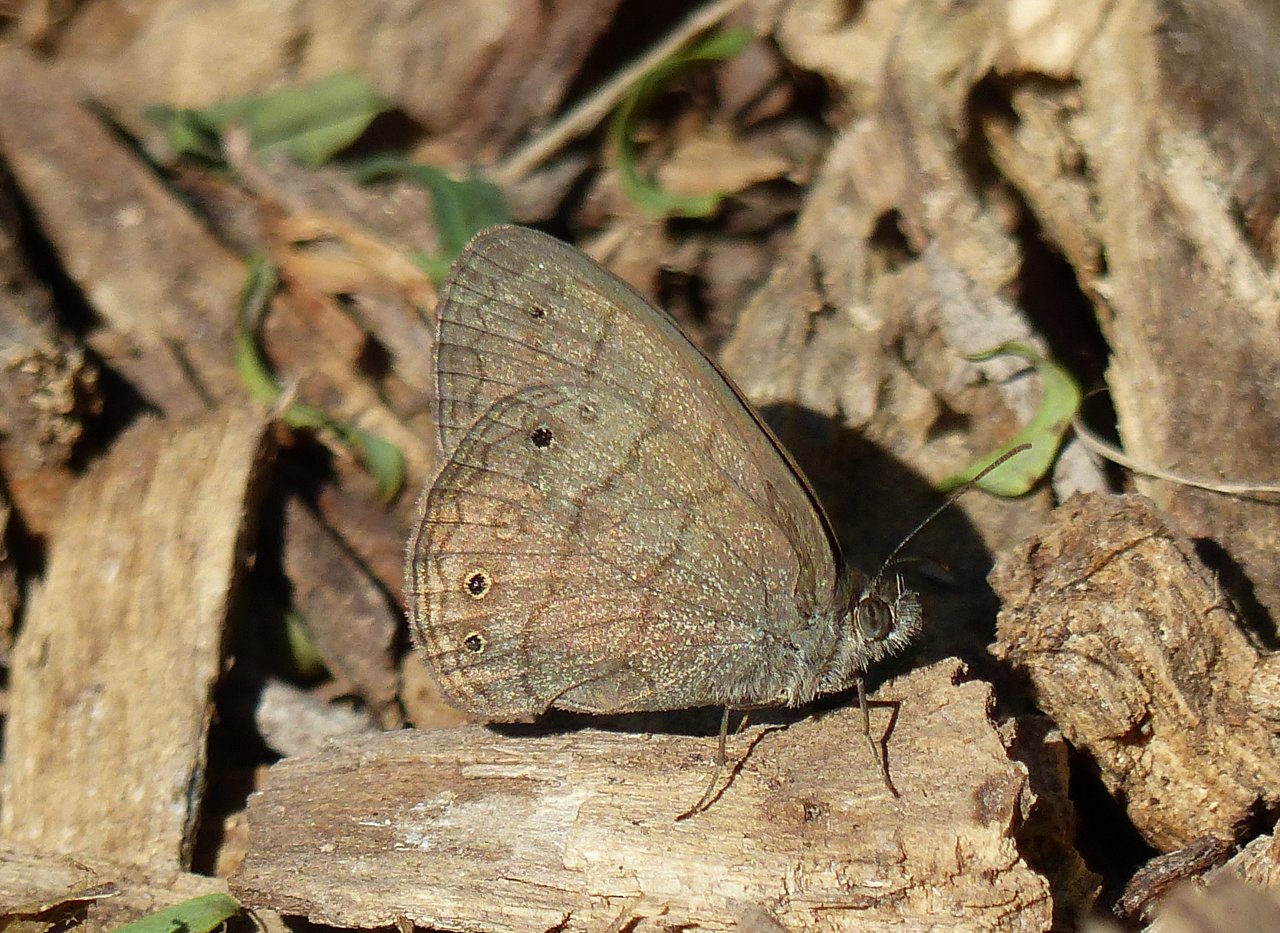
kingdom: Animalia
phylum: Arthropoda
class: Insecta
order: Lepidoptera
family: Nymphalidae
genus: Hermeuptychia
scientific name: Hermeuptychia hermybius
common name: South Texas Satyr
